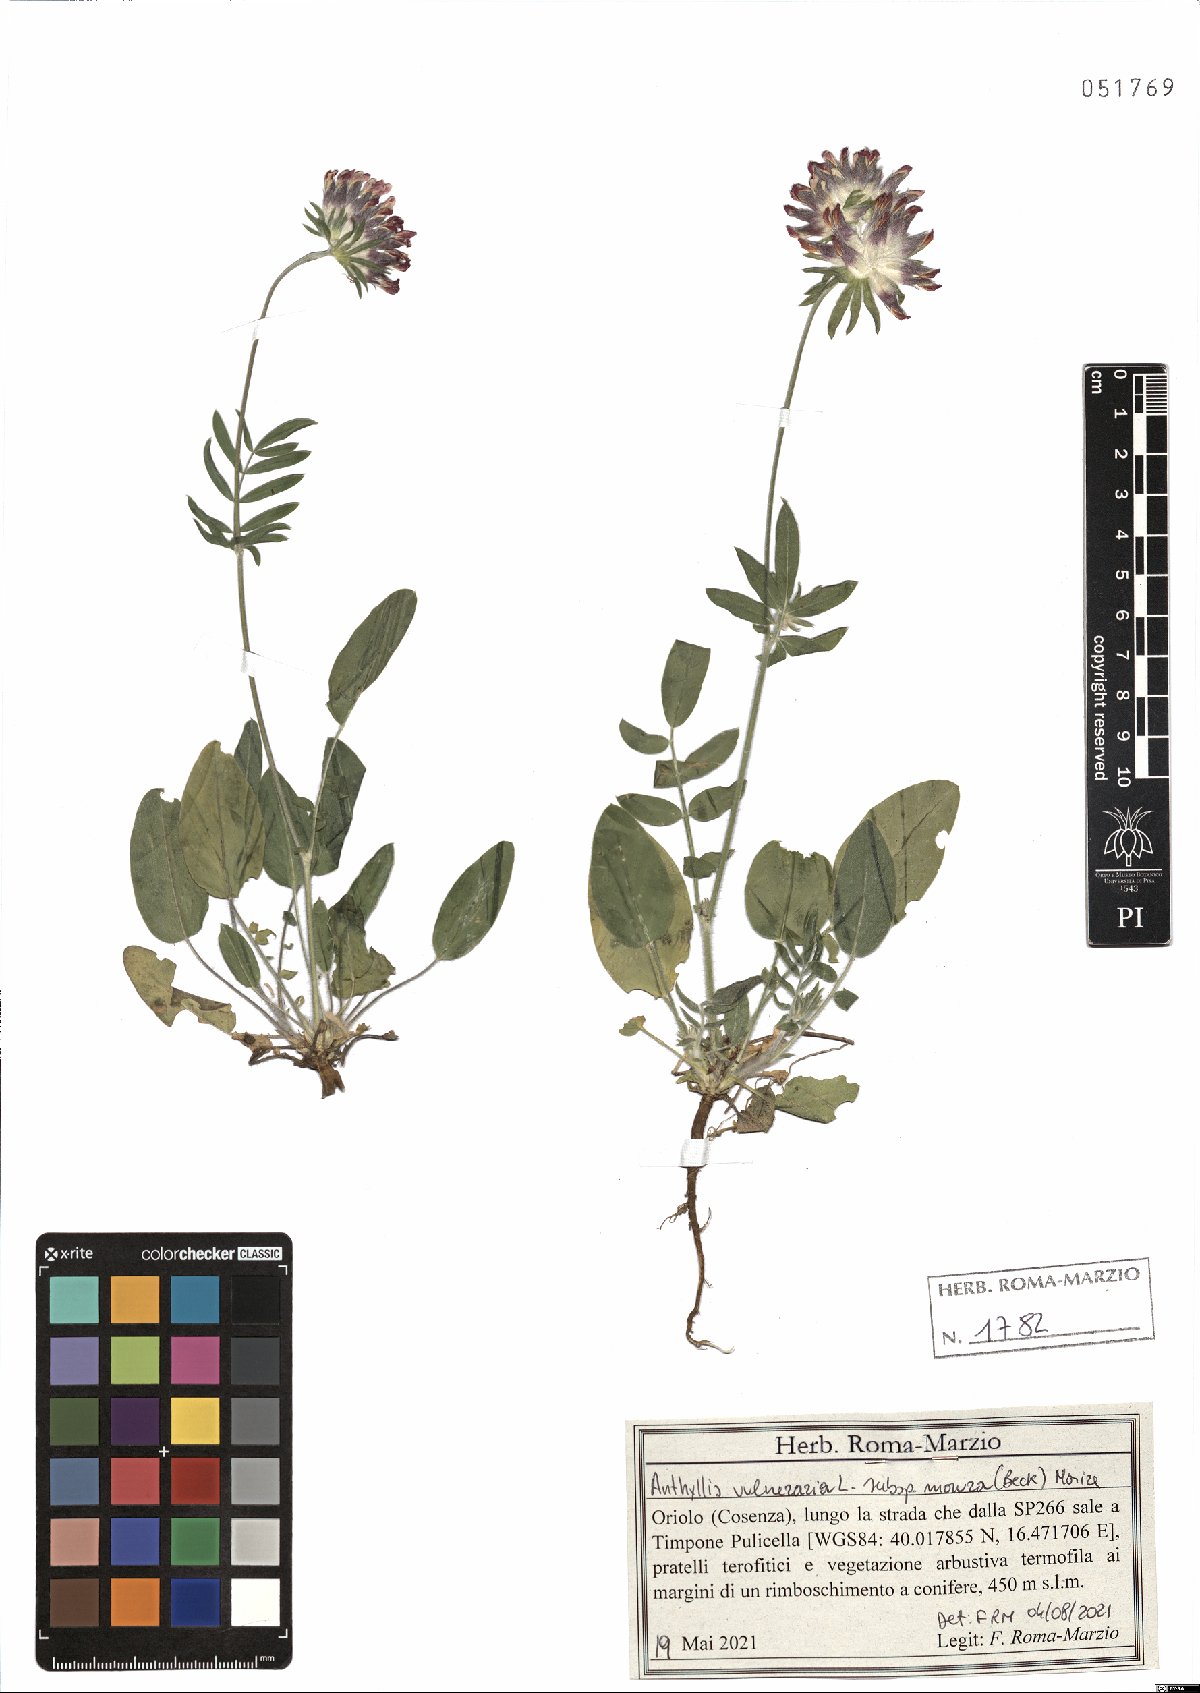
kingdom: Plantae
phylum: Tracheophyta
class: Magnoliopsida
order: Fabales
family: Fabaceae
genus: Anthyllis
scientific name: Anthyllis vulneraria
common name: Kidney vetch
